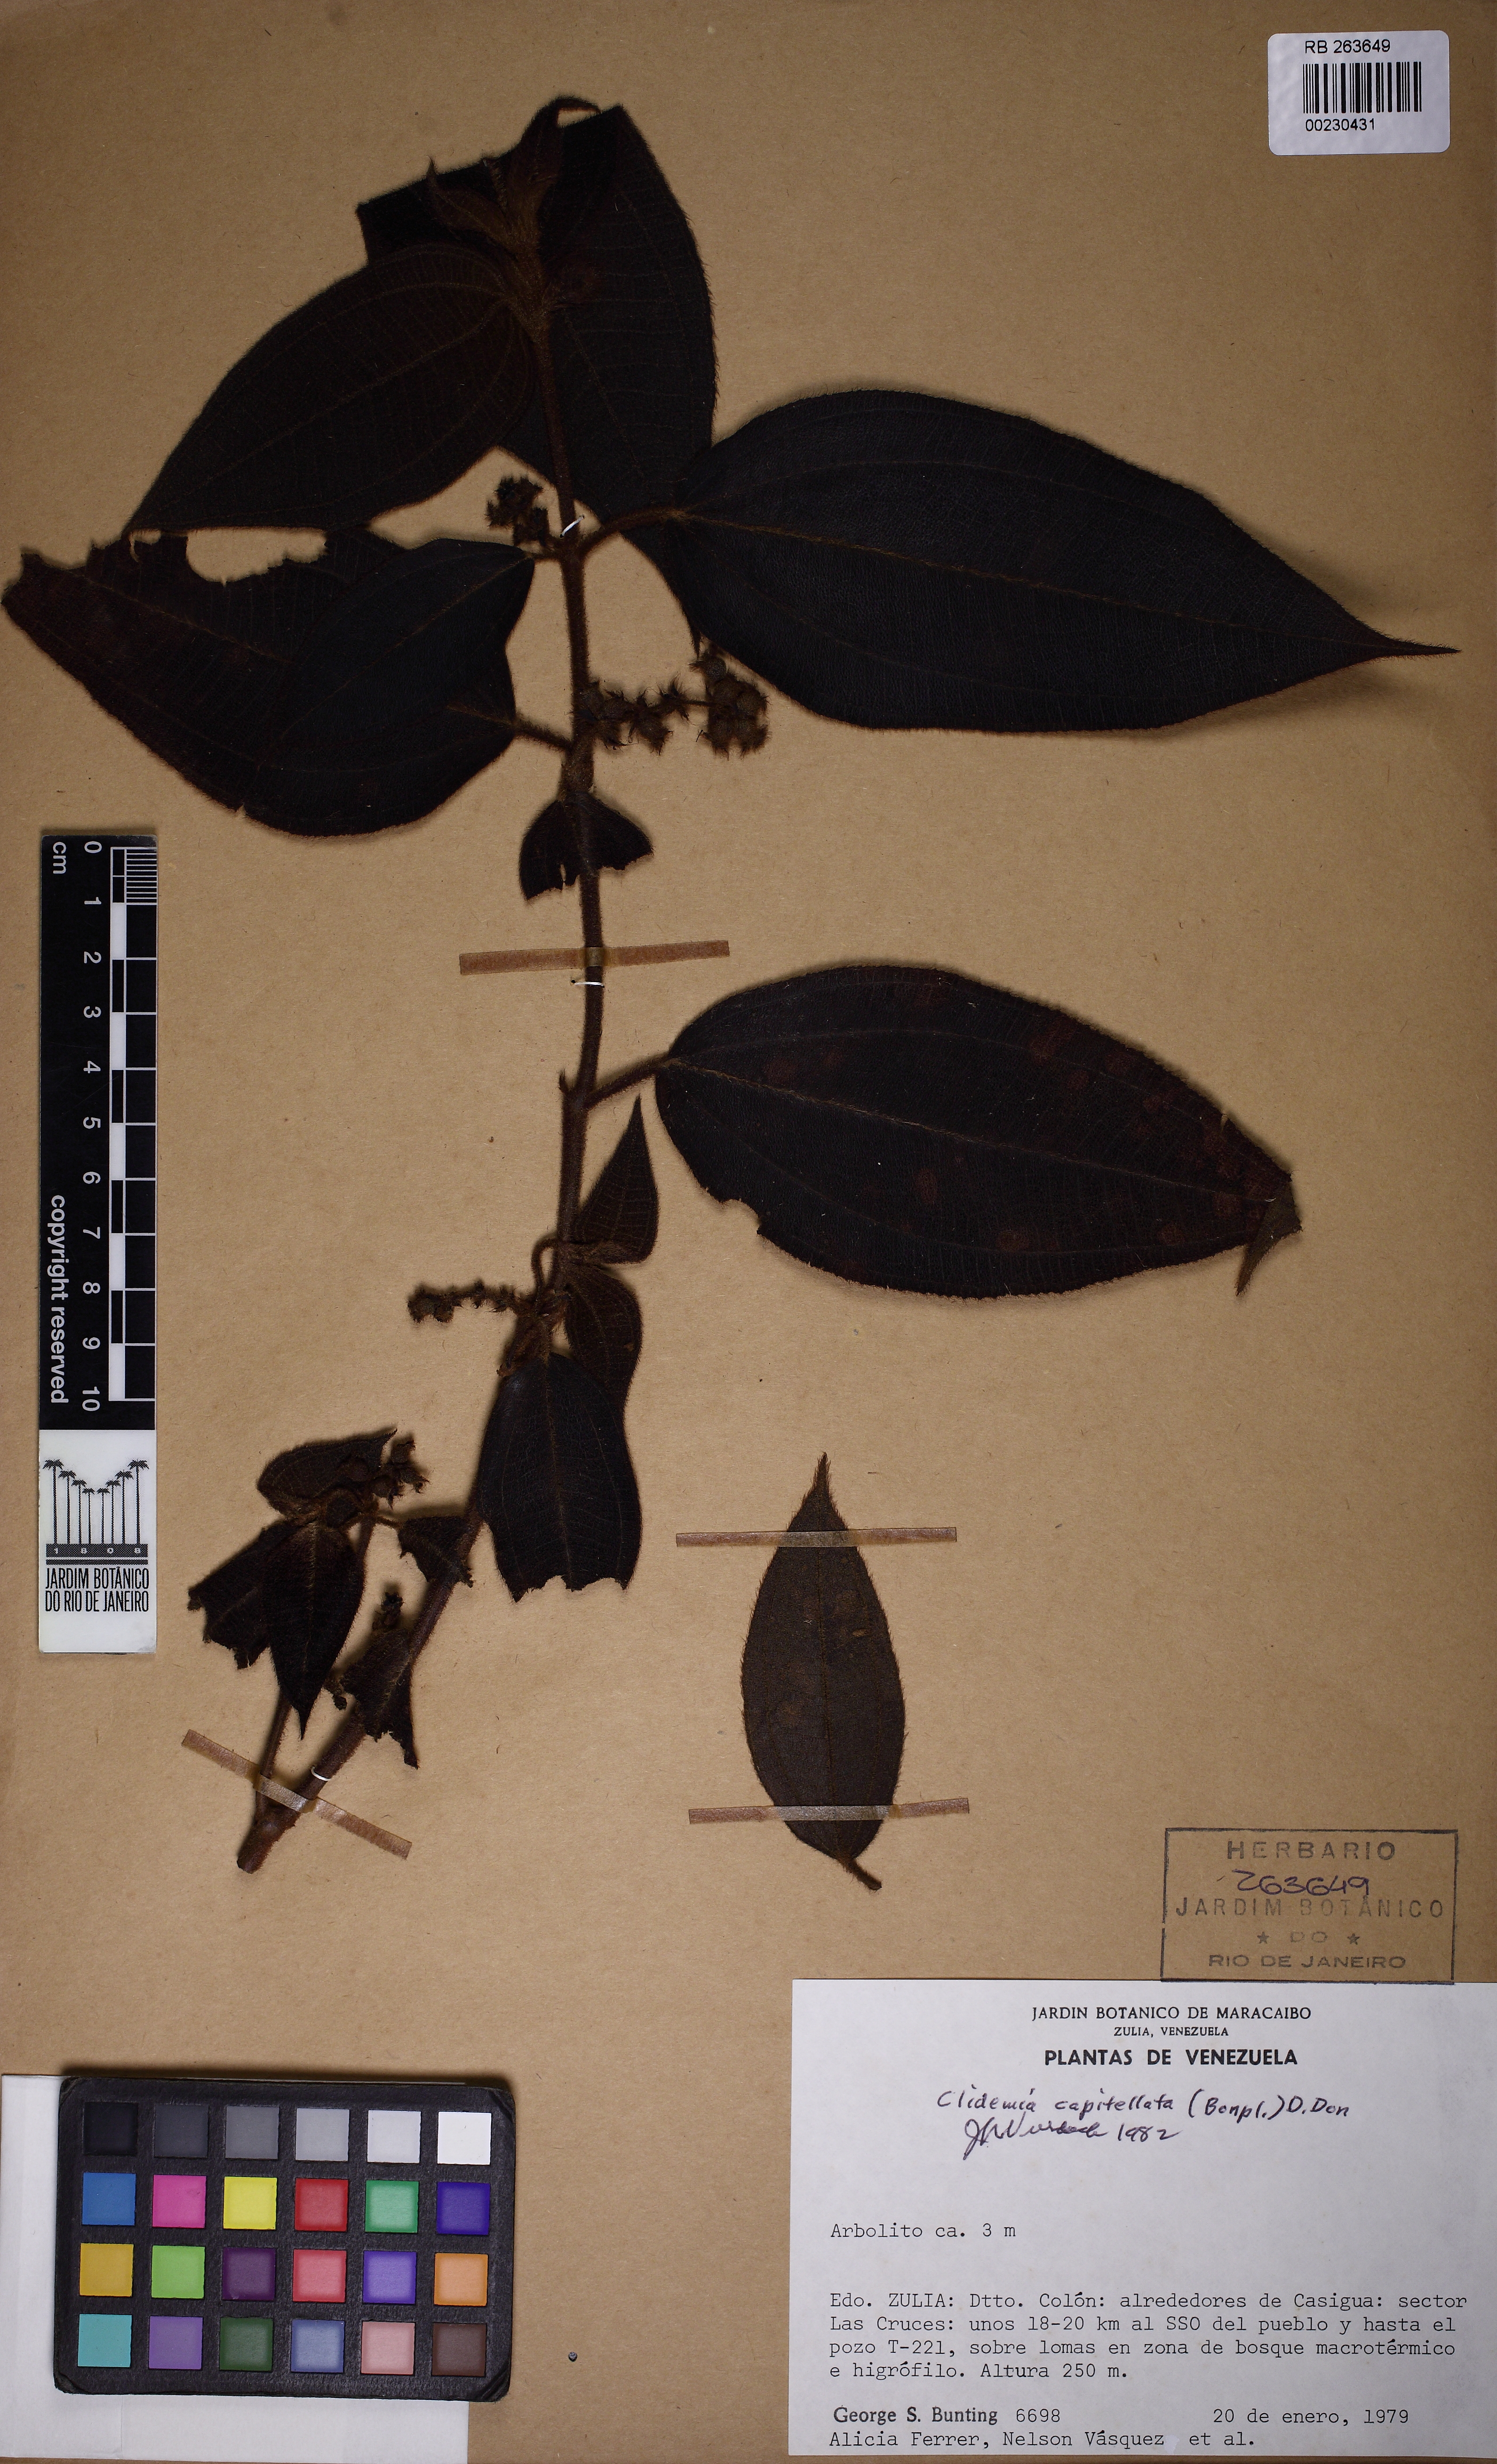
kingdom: Plantae
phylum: Tracheophyta
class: Magnoliopsida
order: Myrtales
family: Melastomataceae
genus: Miconia
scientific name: Miconia dependens
